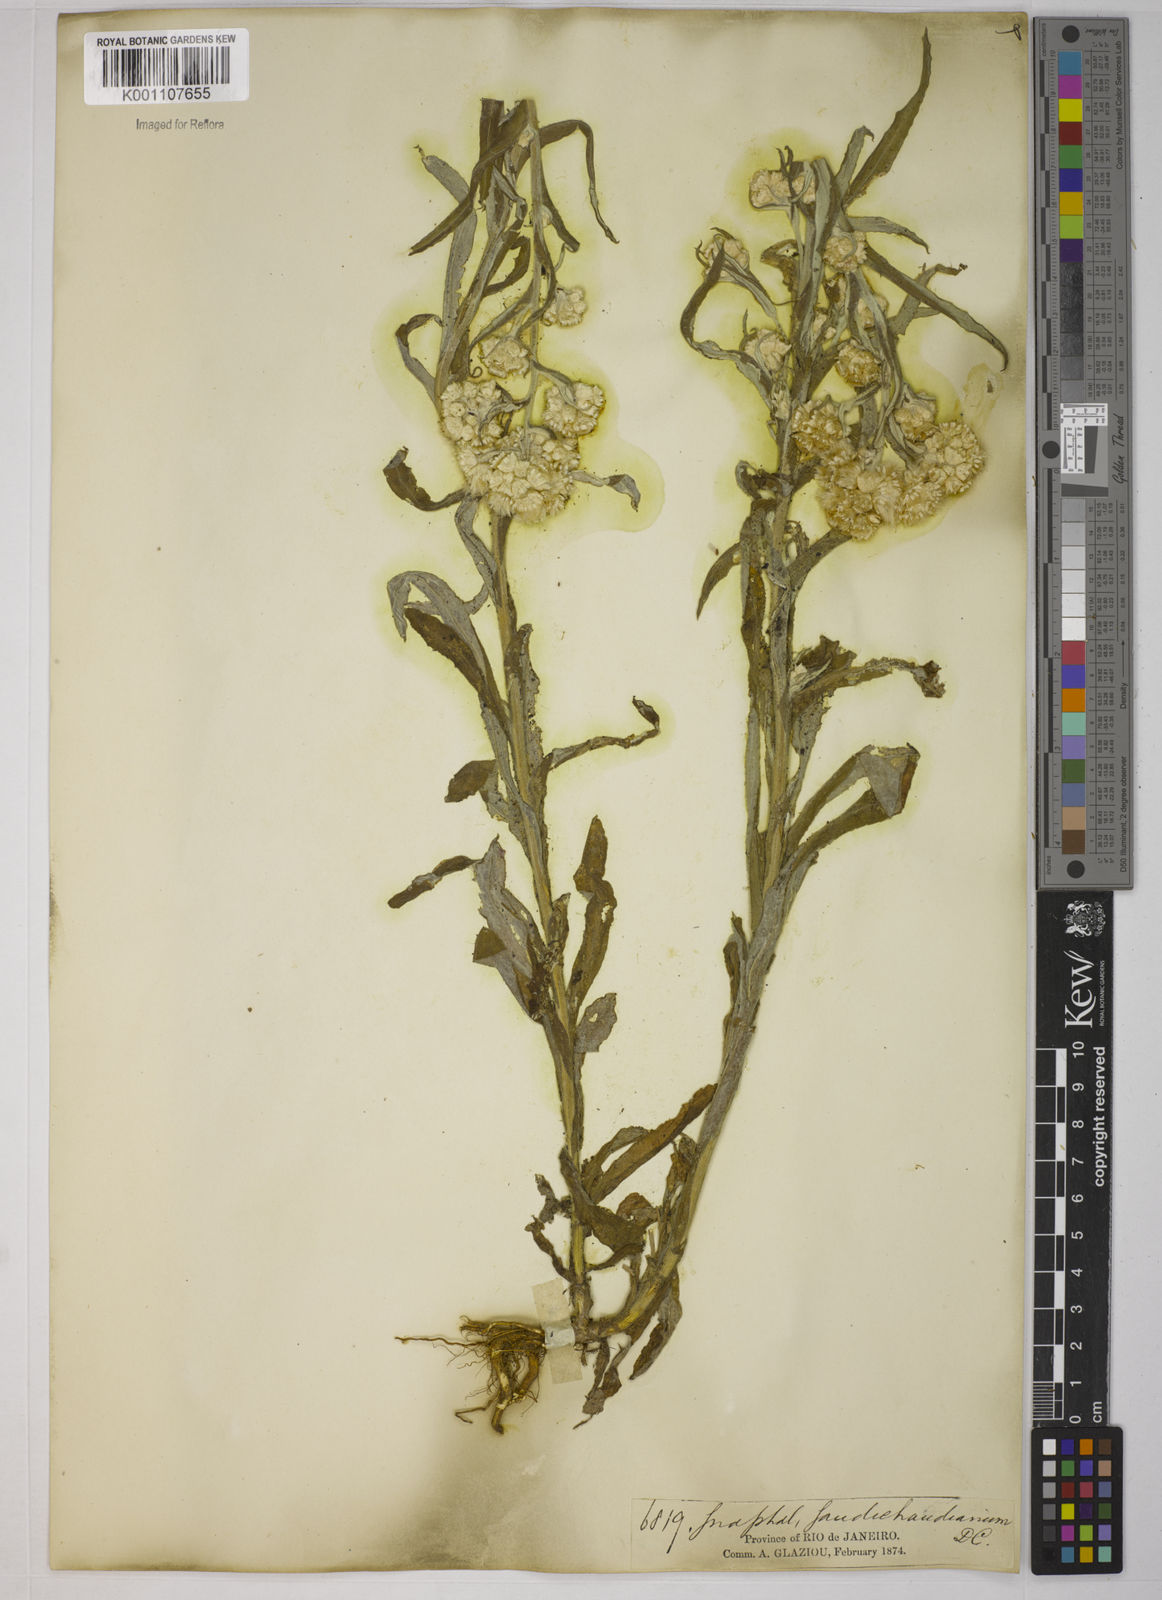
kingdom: Plantae
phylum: Tracheophyta
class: Magnoliopsida
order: Asterales
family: Asteraceae
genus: Pseudognaphalium
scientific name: Pseudognaphalium cheiranthifolium
